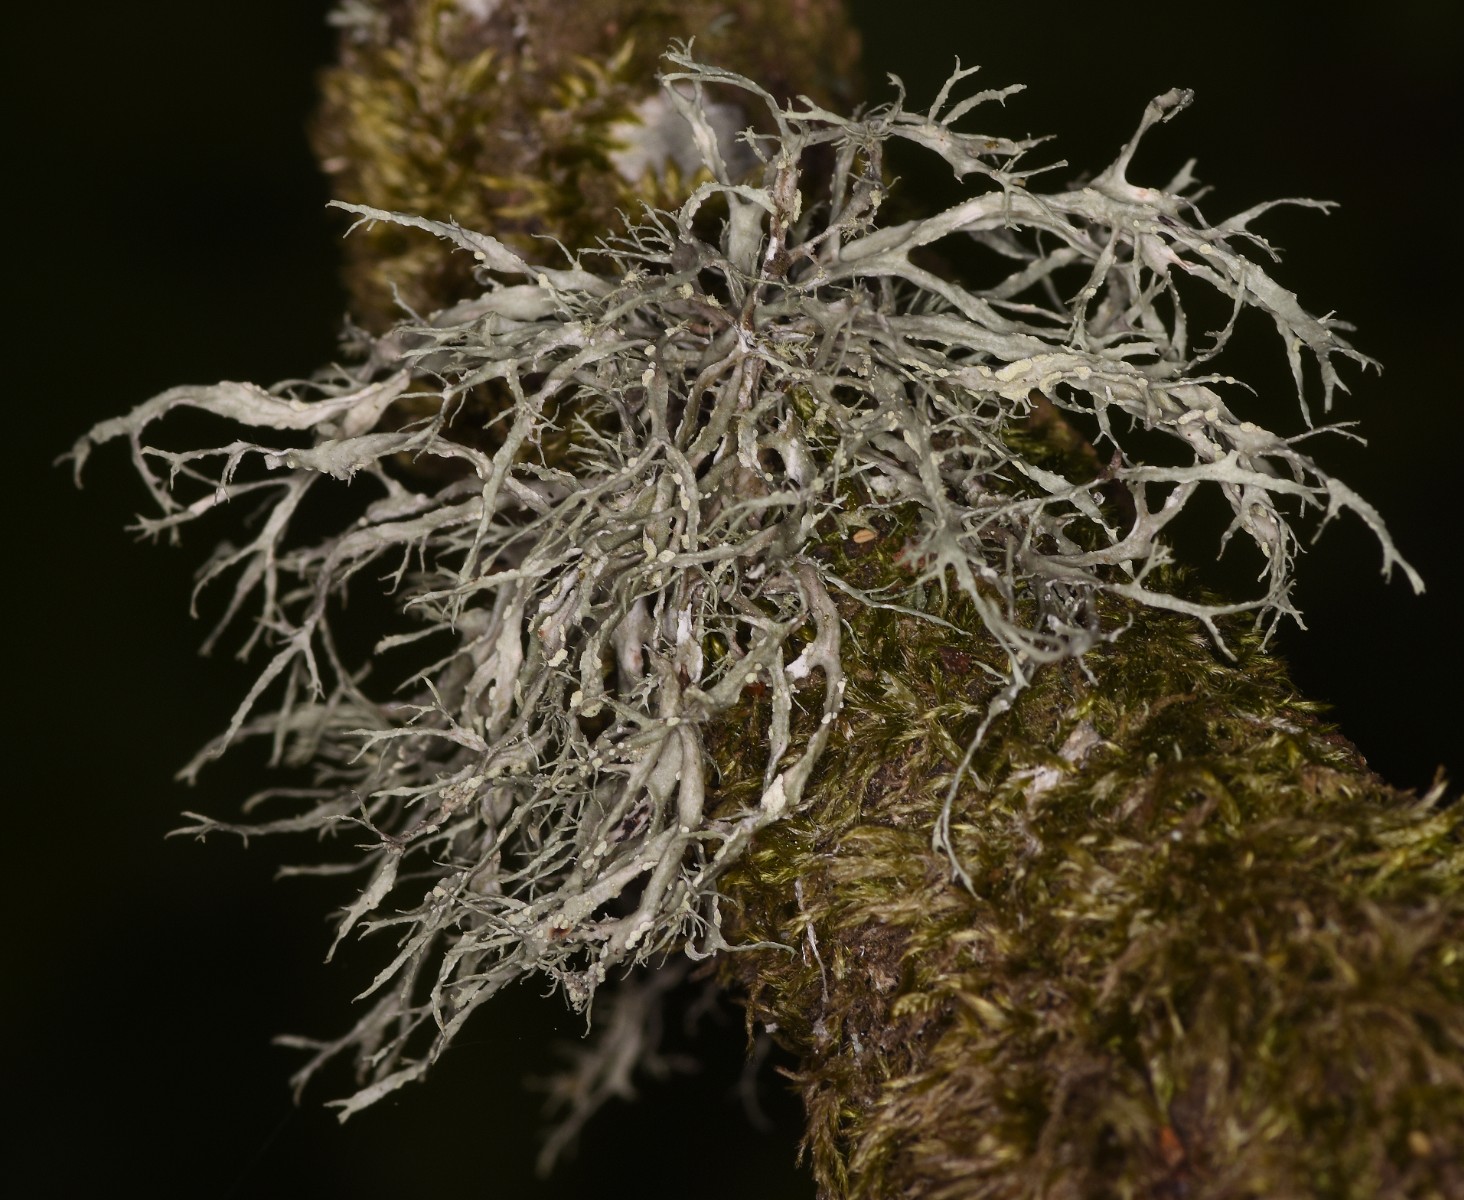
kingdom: Fungi
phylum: Ascomycota
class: Lecanoromycetes
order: Lecanorales
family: Ramalinaceae
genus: Ramalina
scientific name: Ramalina farinacea
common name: melet grenlav
